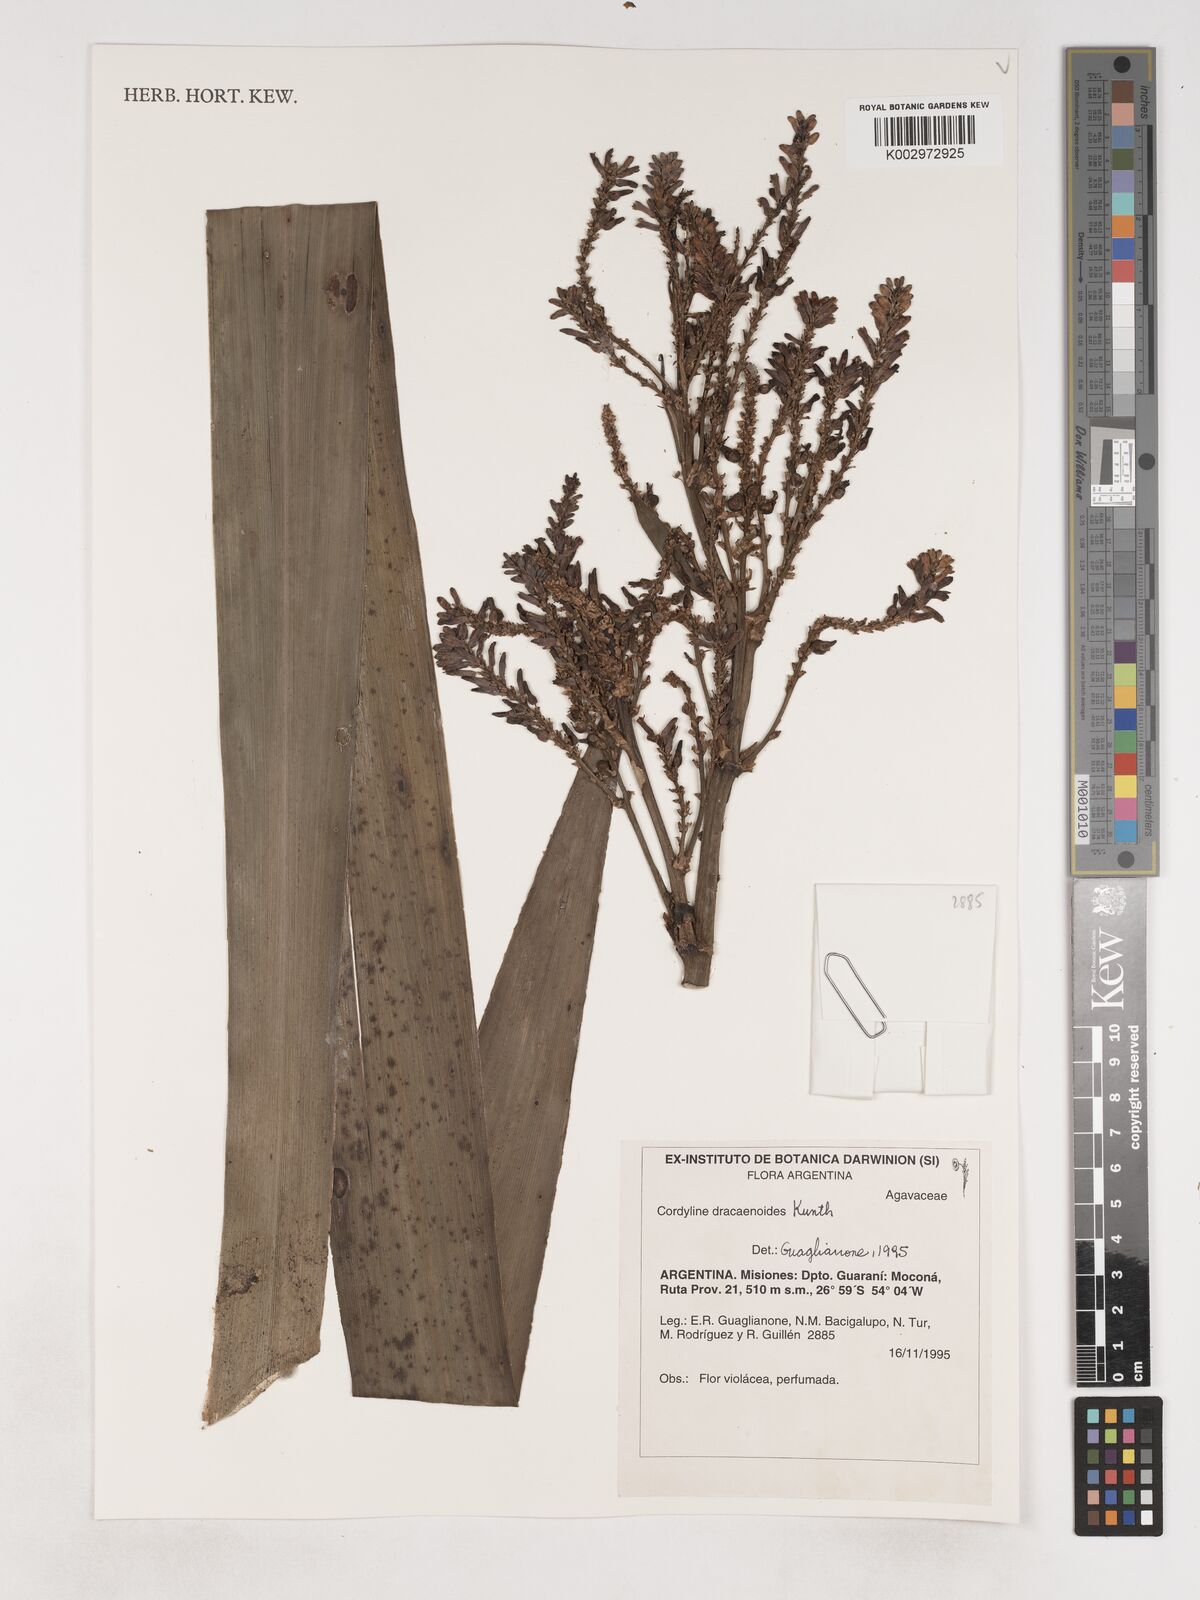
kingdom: Plantae
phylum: Tracheophyta
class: Liliopsida
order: Asparagales
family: Asparagaceae
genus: Cordyline
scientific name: Cordyline congesta
